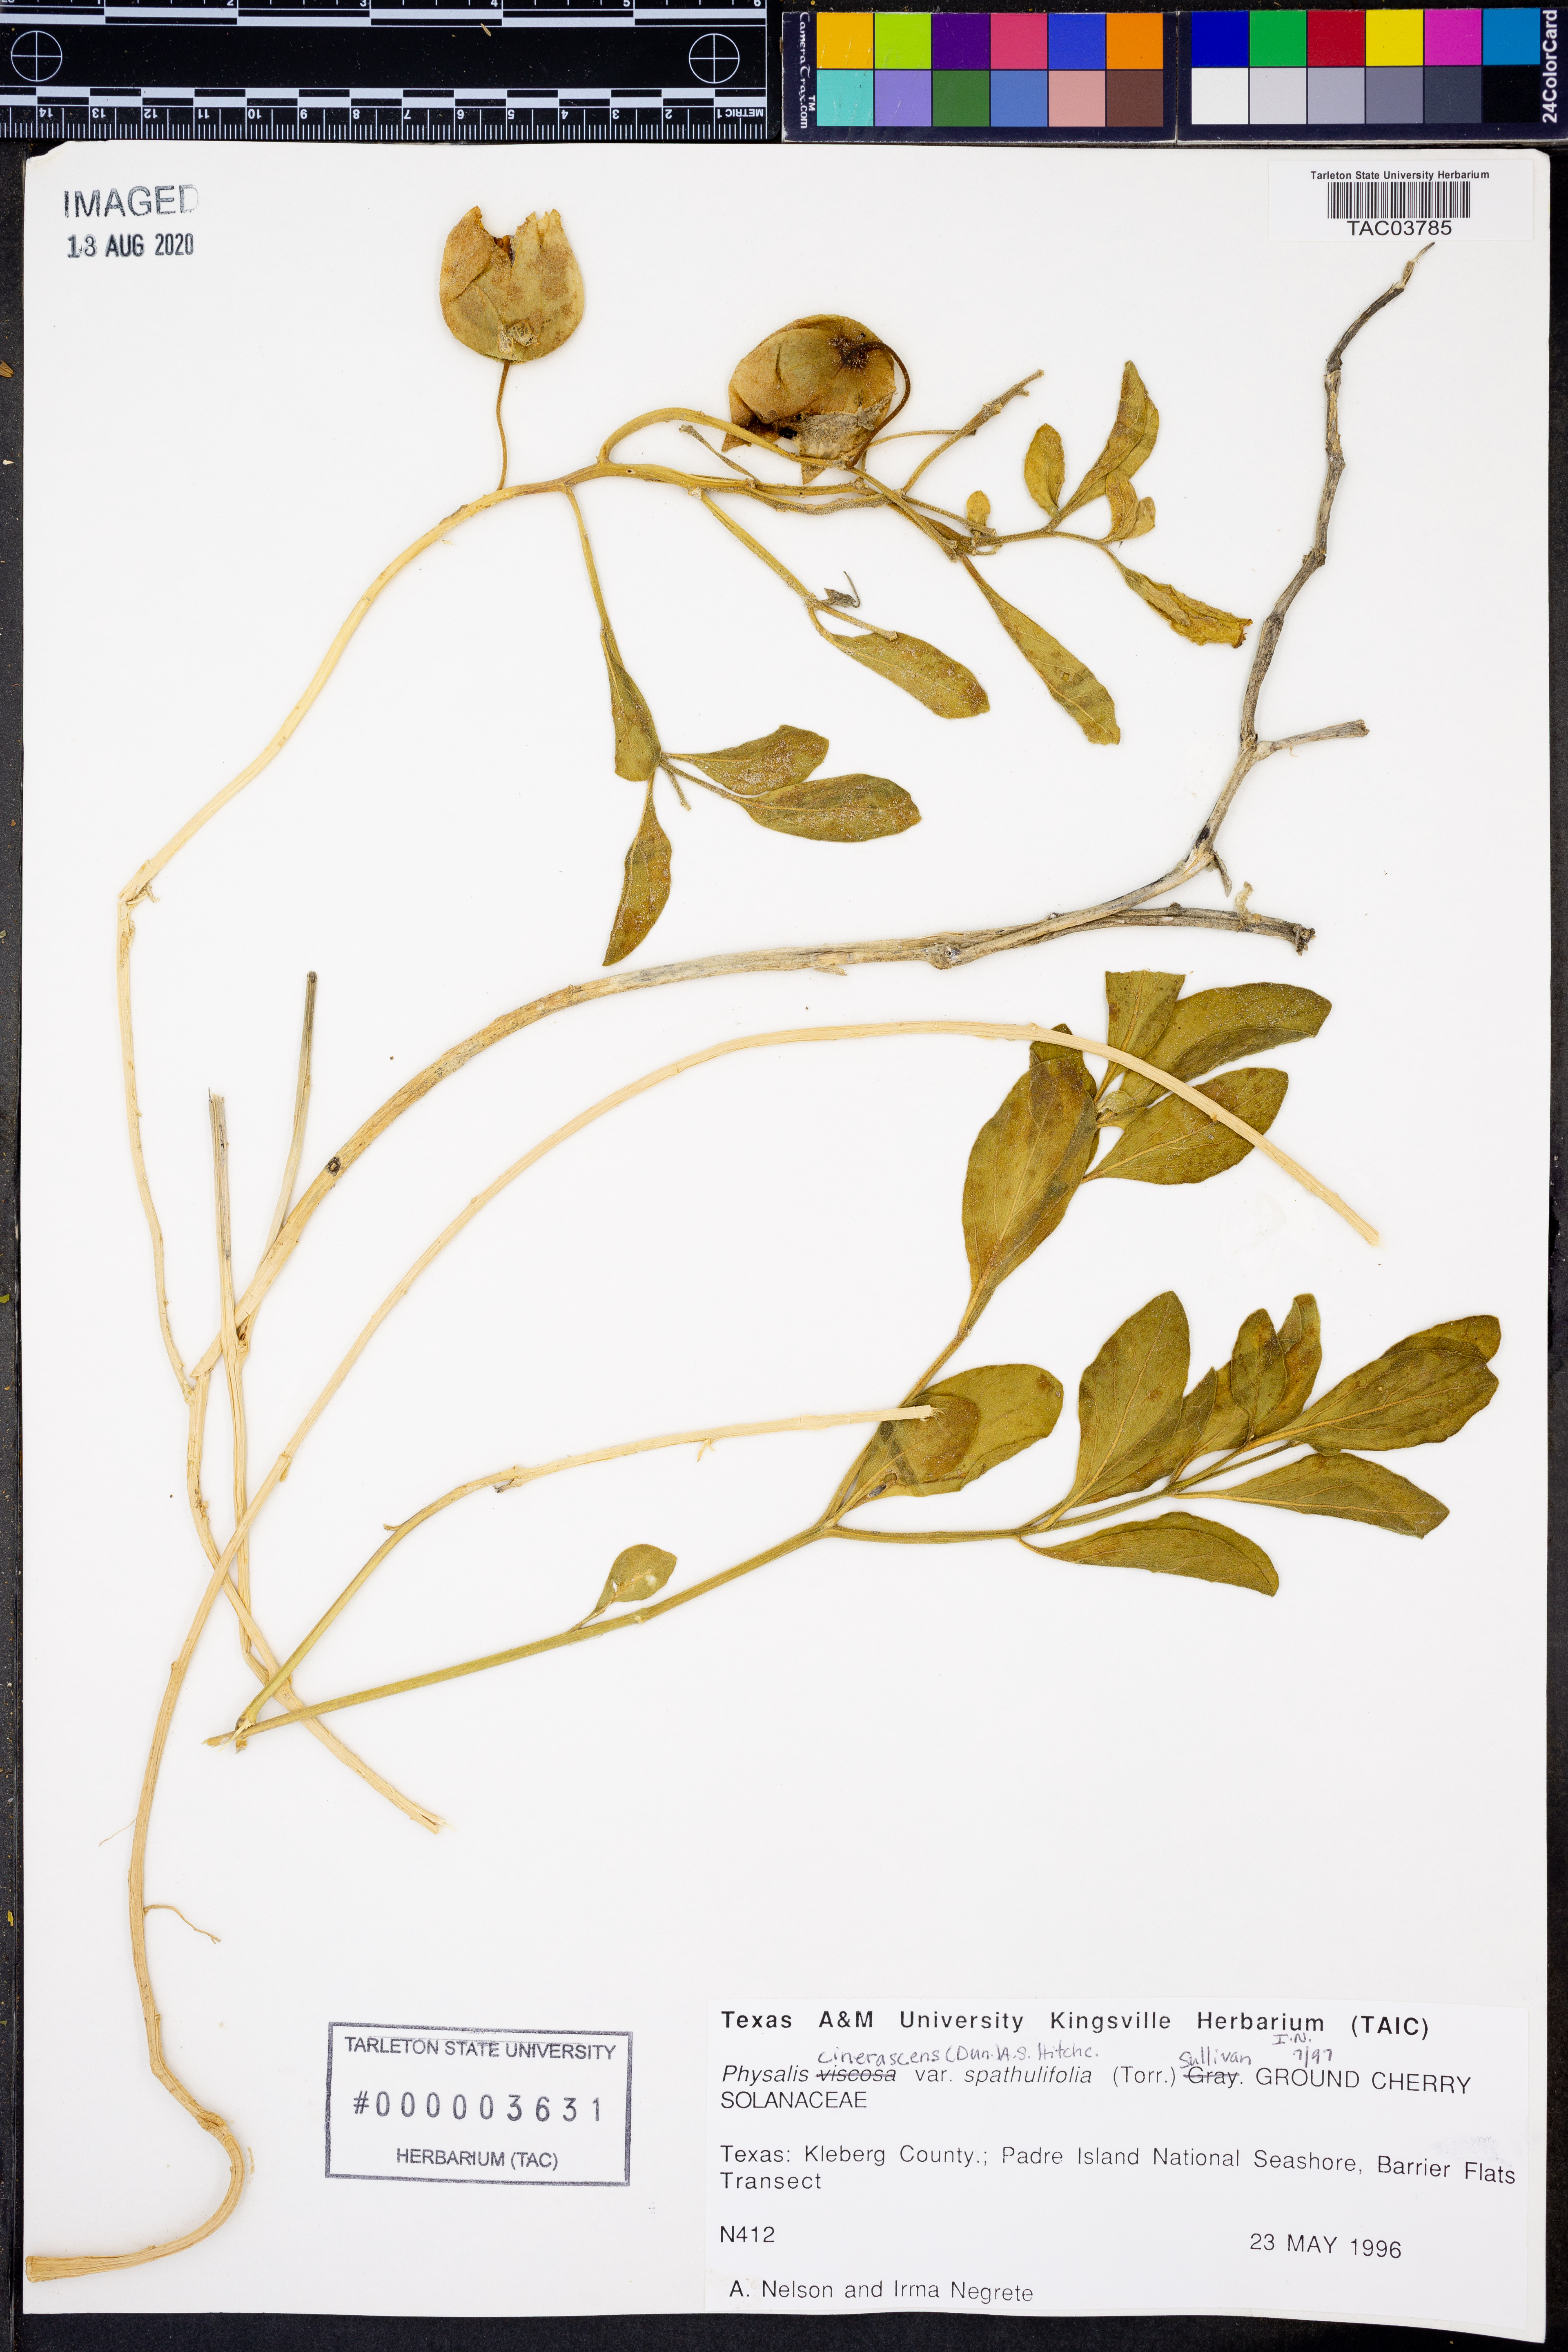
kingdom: Plantae
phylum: Tracheophyta
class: Magnoliopsida
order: Solanales
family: Solanaceae
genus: Physalis
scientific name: Physalis cinerascens
